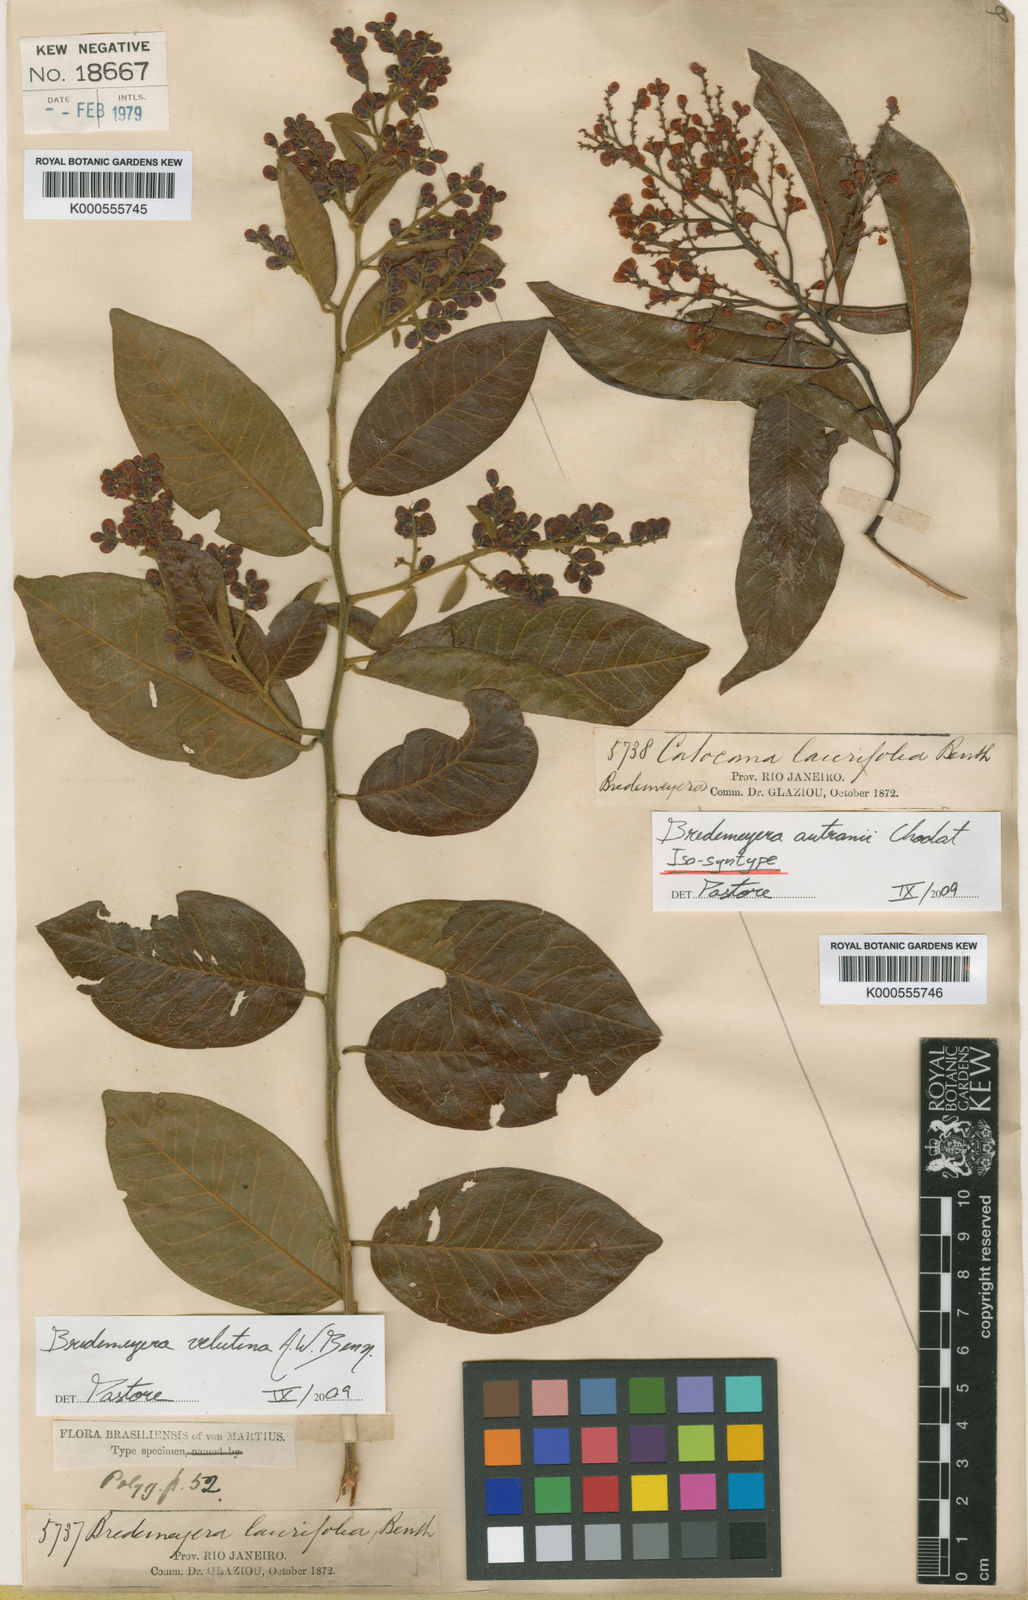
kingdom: Plantae
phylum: Tracheophyta
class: Magnoliopsida
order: Fabales
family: Polygalaceae
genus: Bredemeyera
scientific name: Bredemeyera disperma
